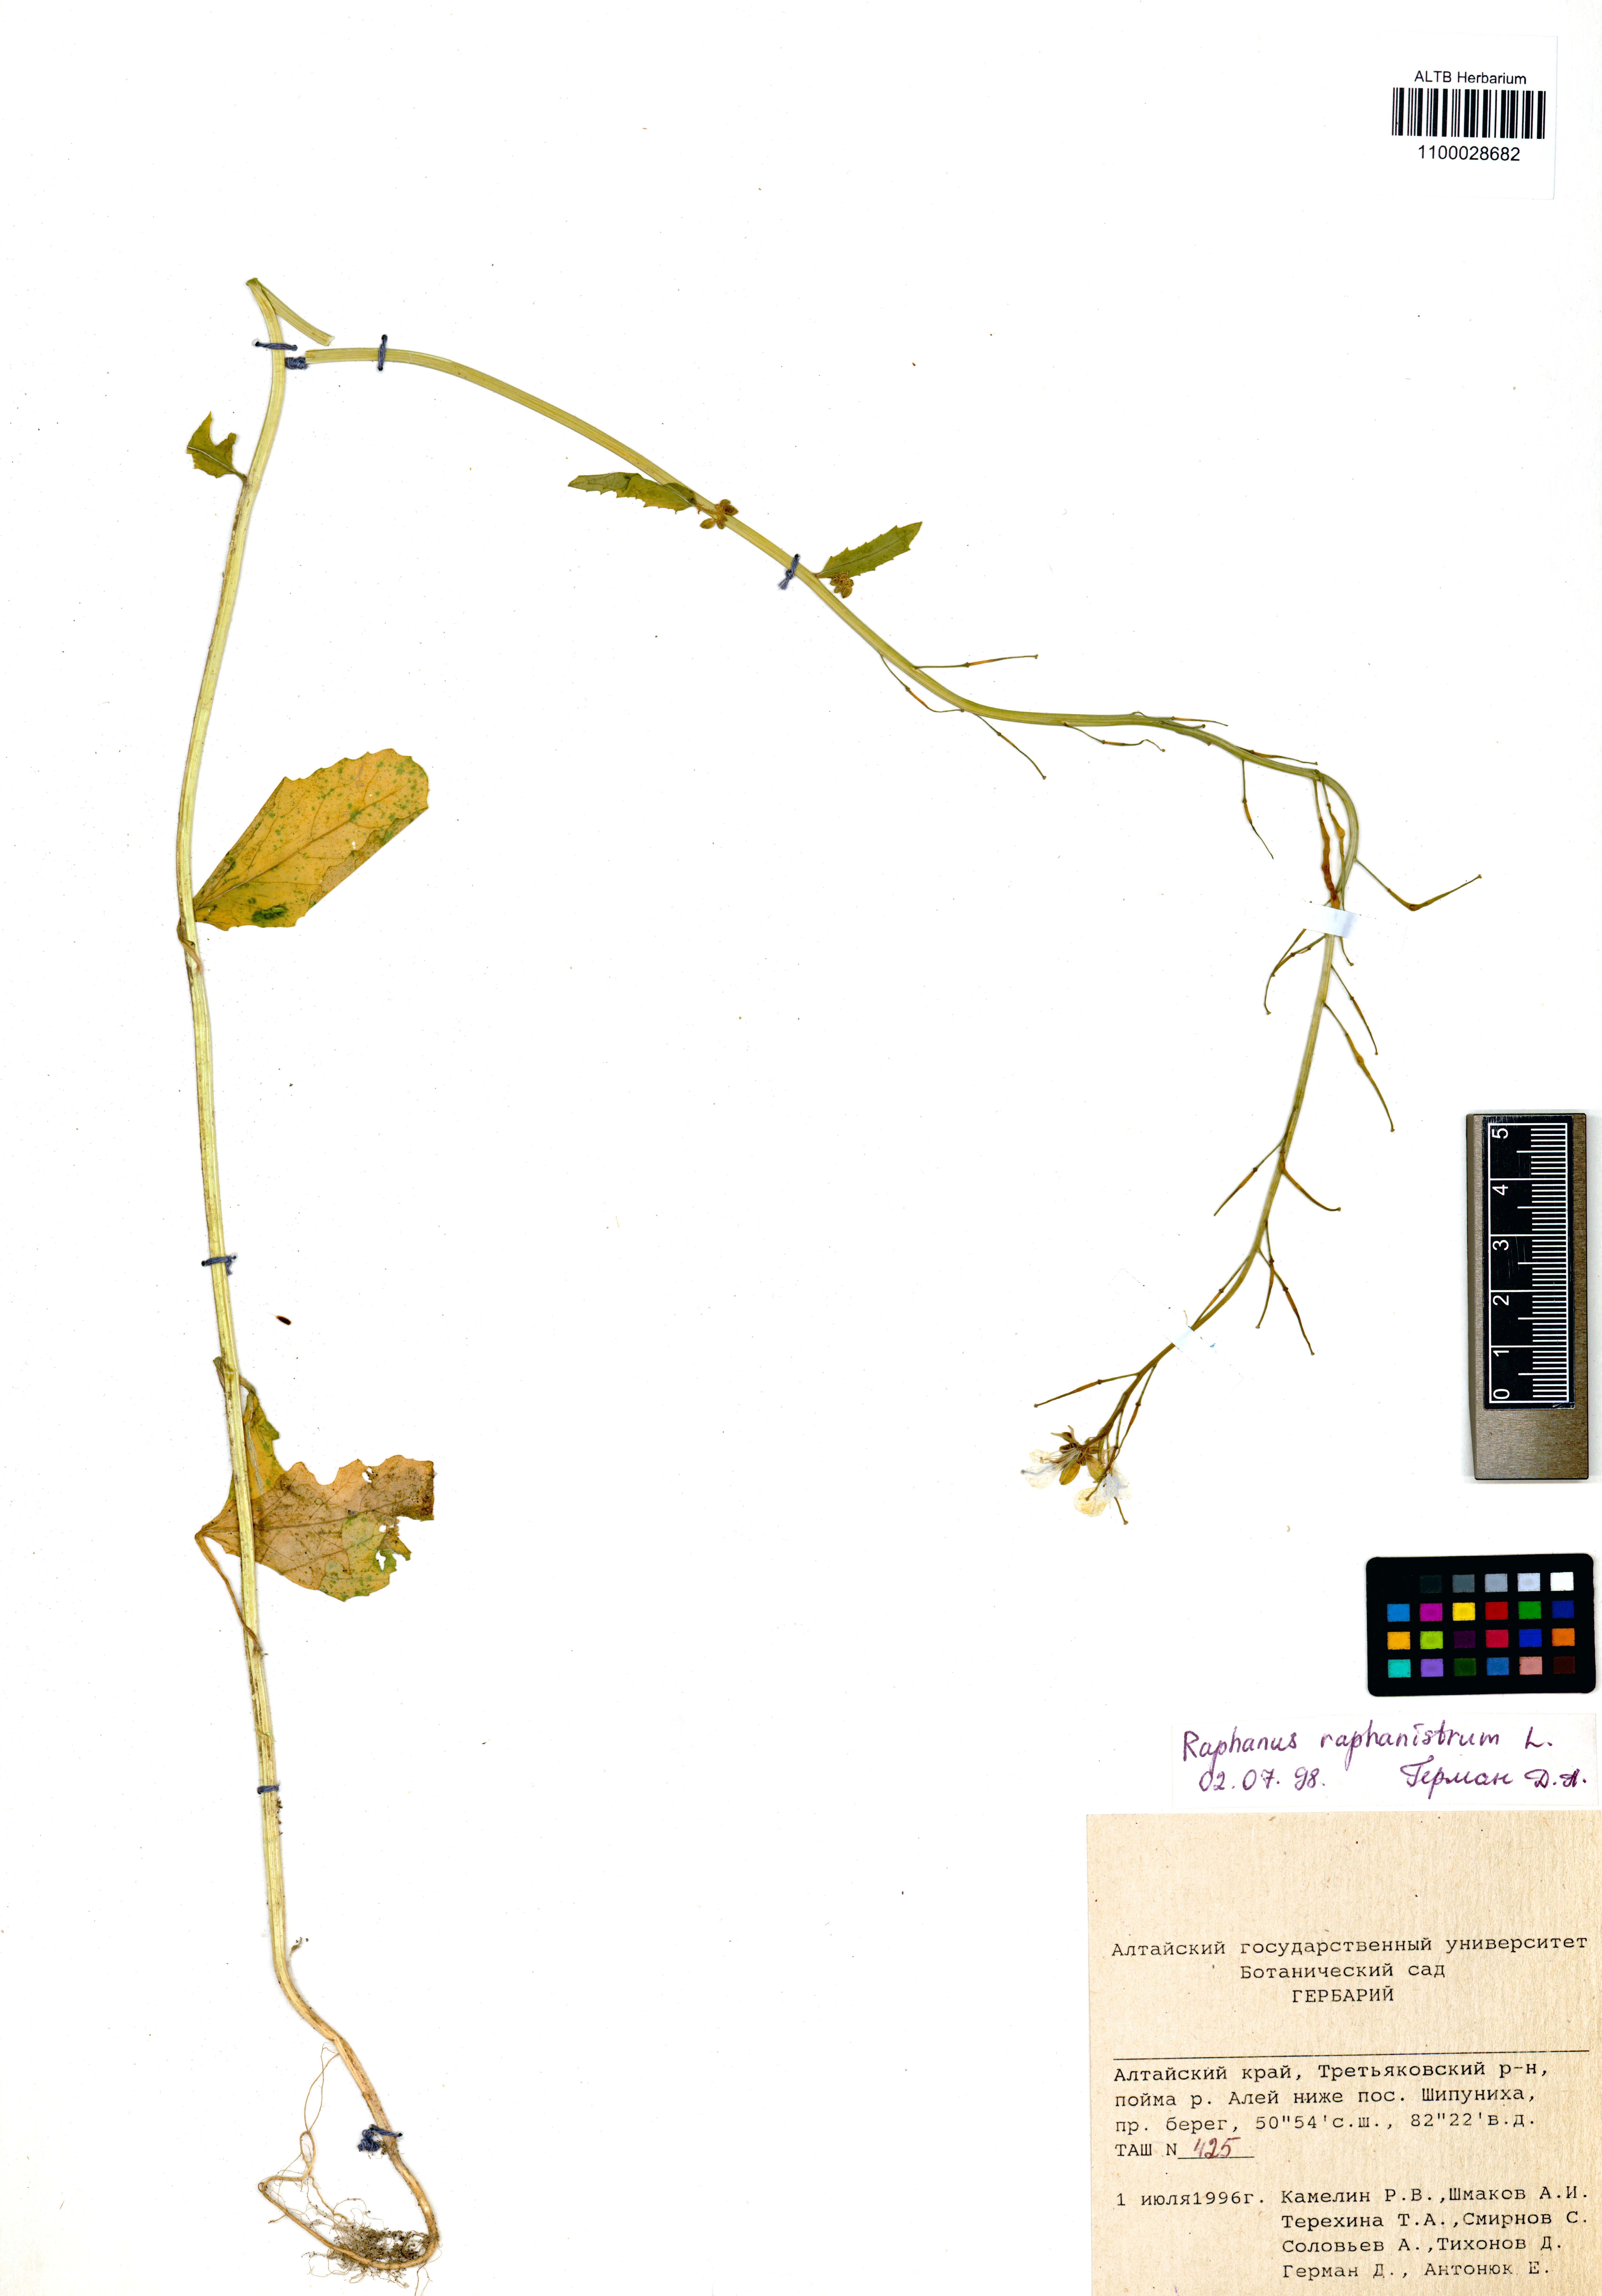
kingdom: Plantae
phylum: Tracheophyta
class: Magnoliopsida
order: Brassicales
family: Brassicaceae
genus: Raphanus
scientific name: Raphanus raphanistrum
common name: Wild radish
